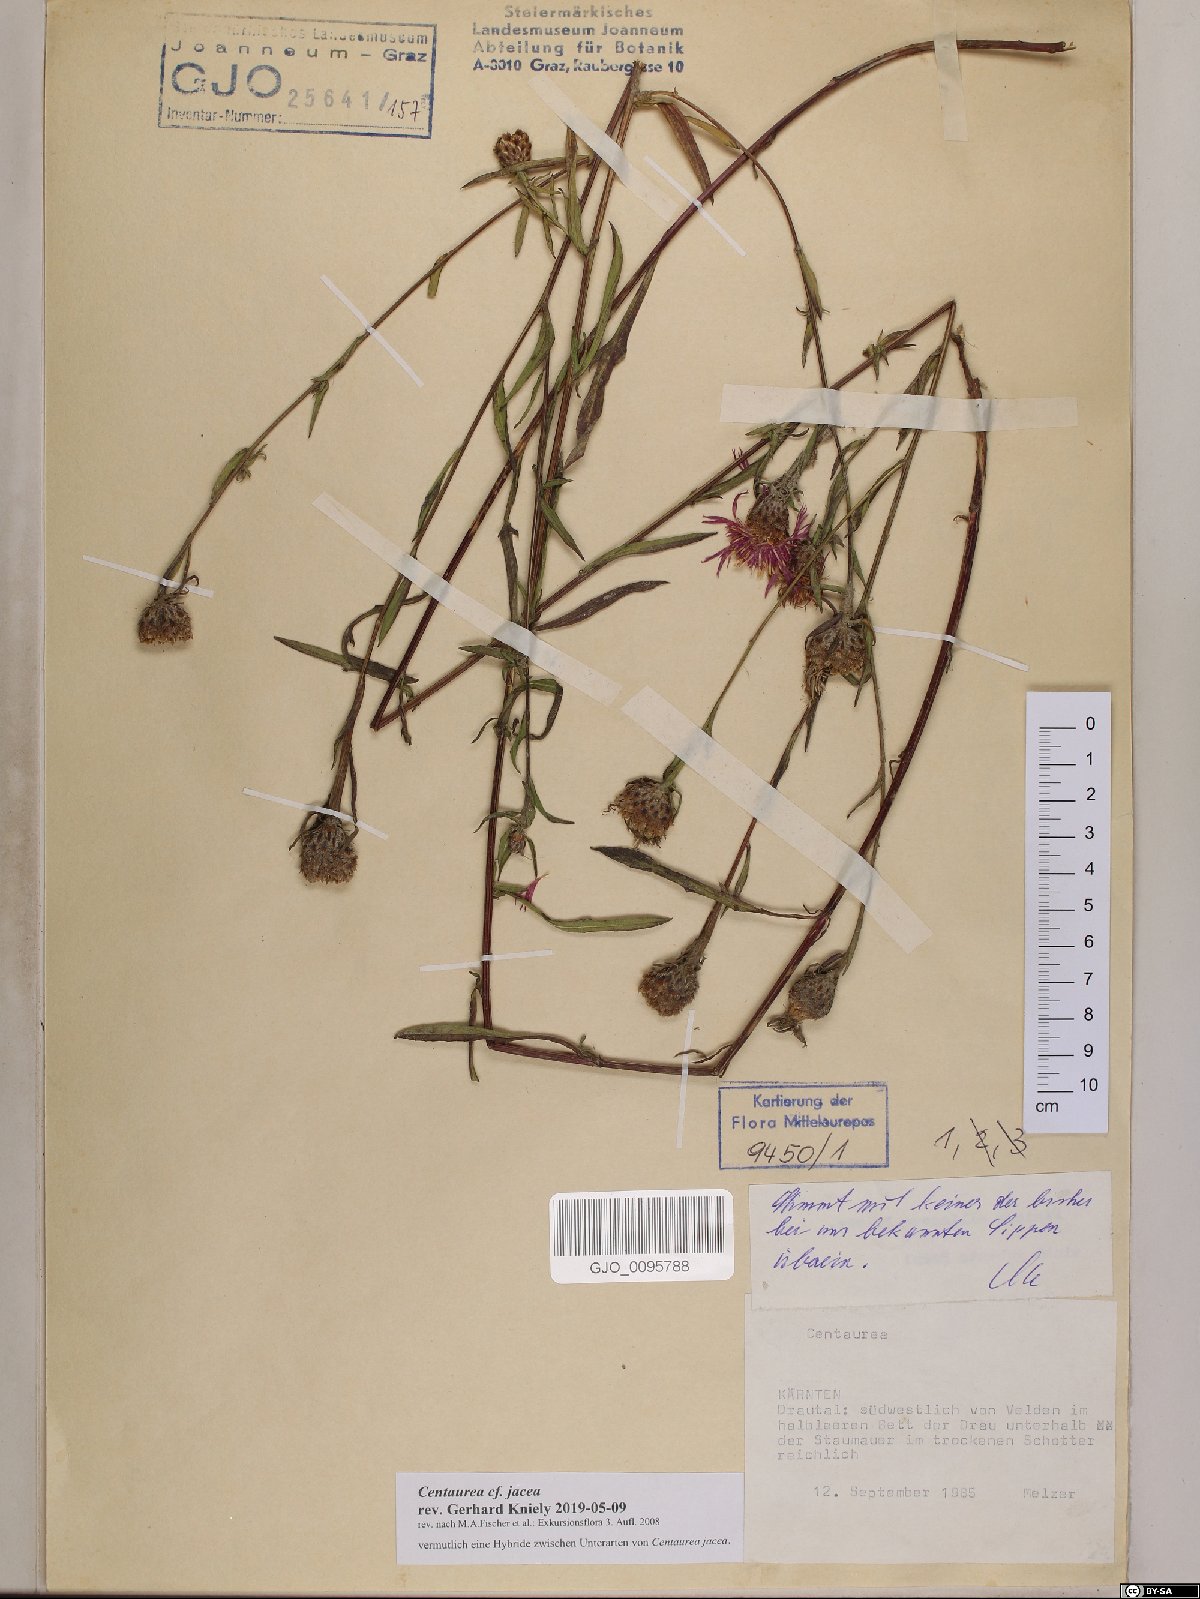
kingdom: Plantae
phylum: Tracheophyta
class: Magnoliopsida
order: Asterales
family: Asteraceae
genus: Centaurea
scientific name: Centaurea jacea
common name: Brown knapweed
